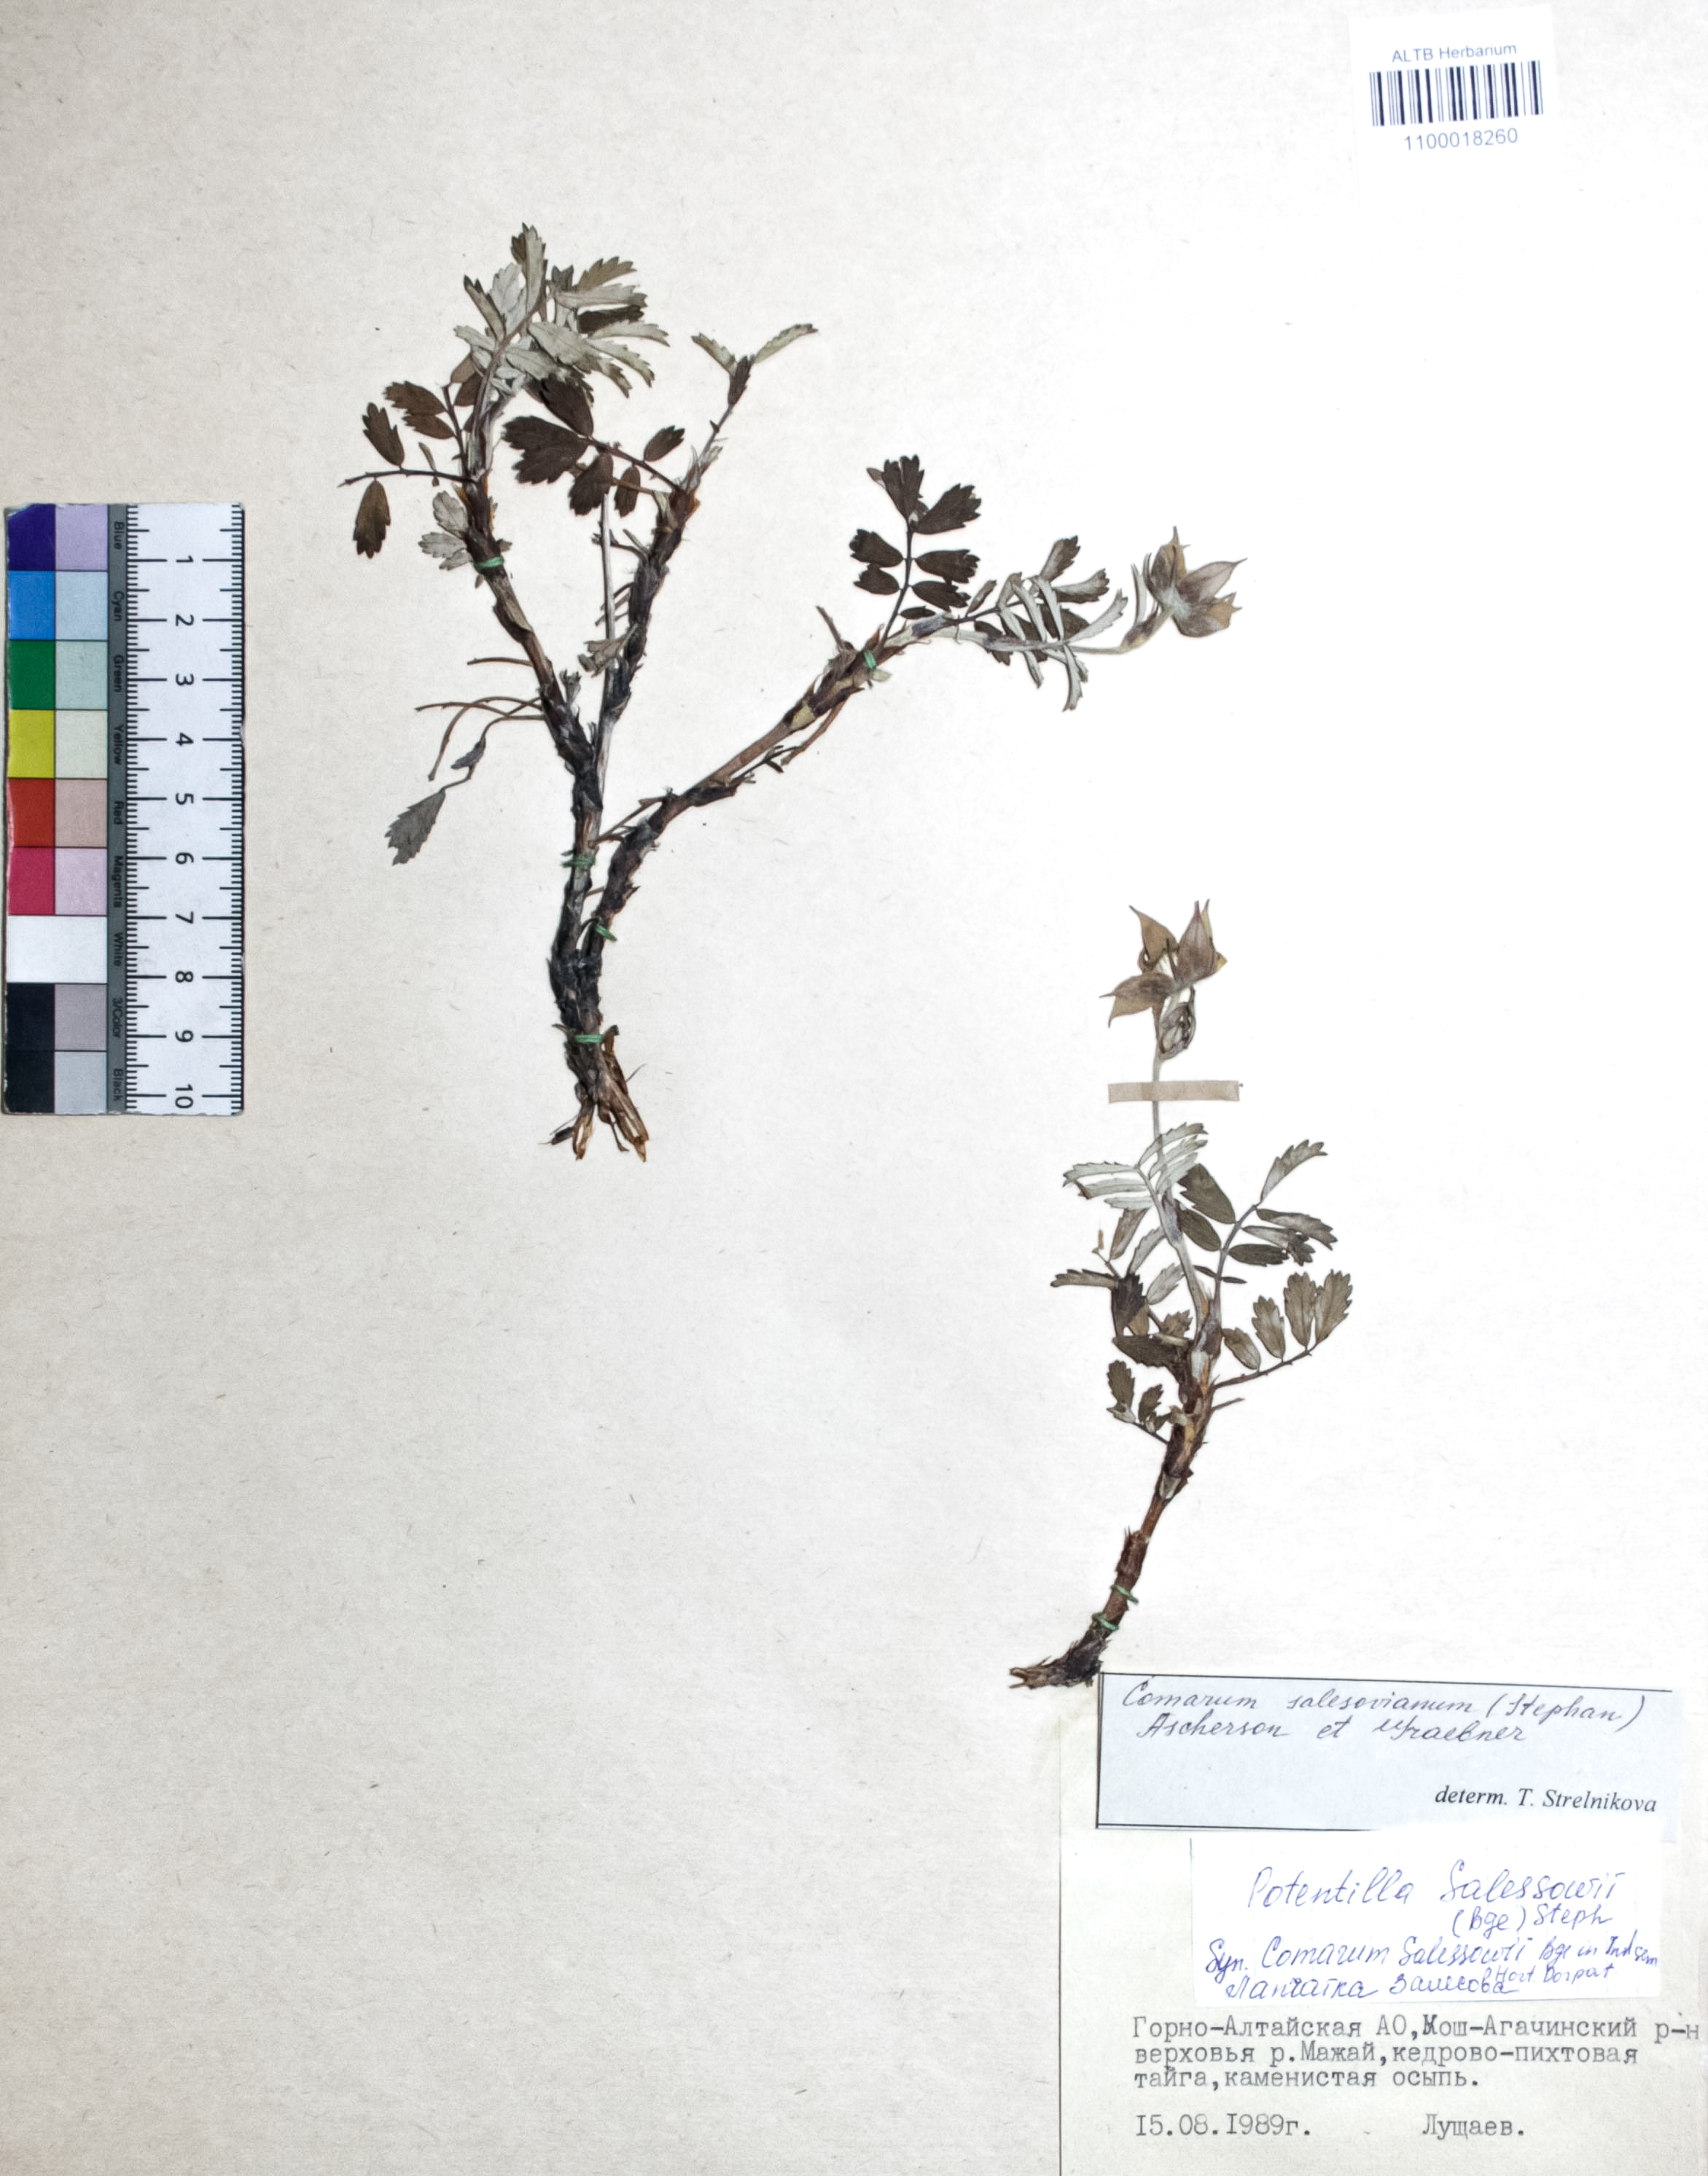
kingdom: Plantae
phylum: Tracheophyta
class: Magnoliopsida
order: Rosales
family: Rosaceae
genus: Farinopsis
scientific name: Farinopsis salesoviana
